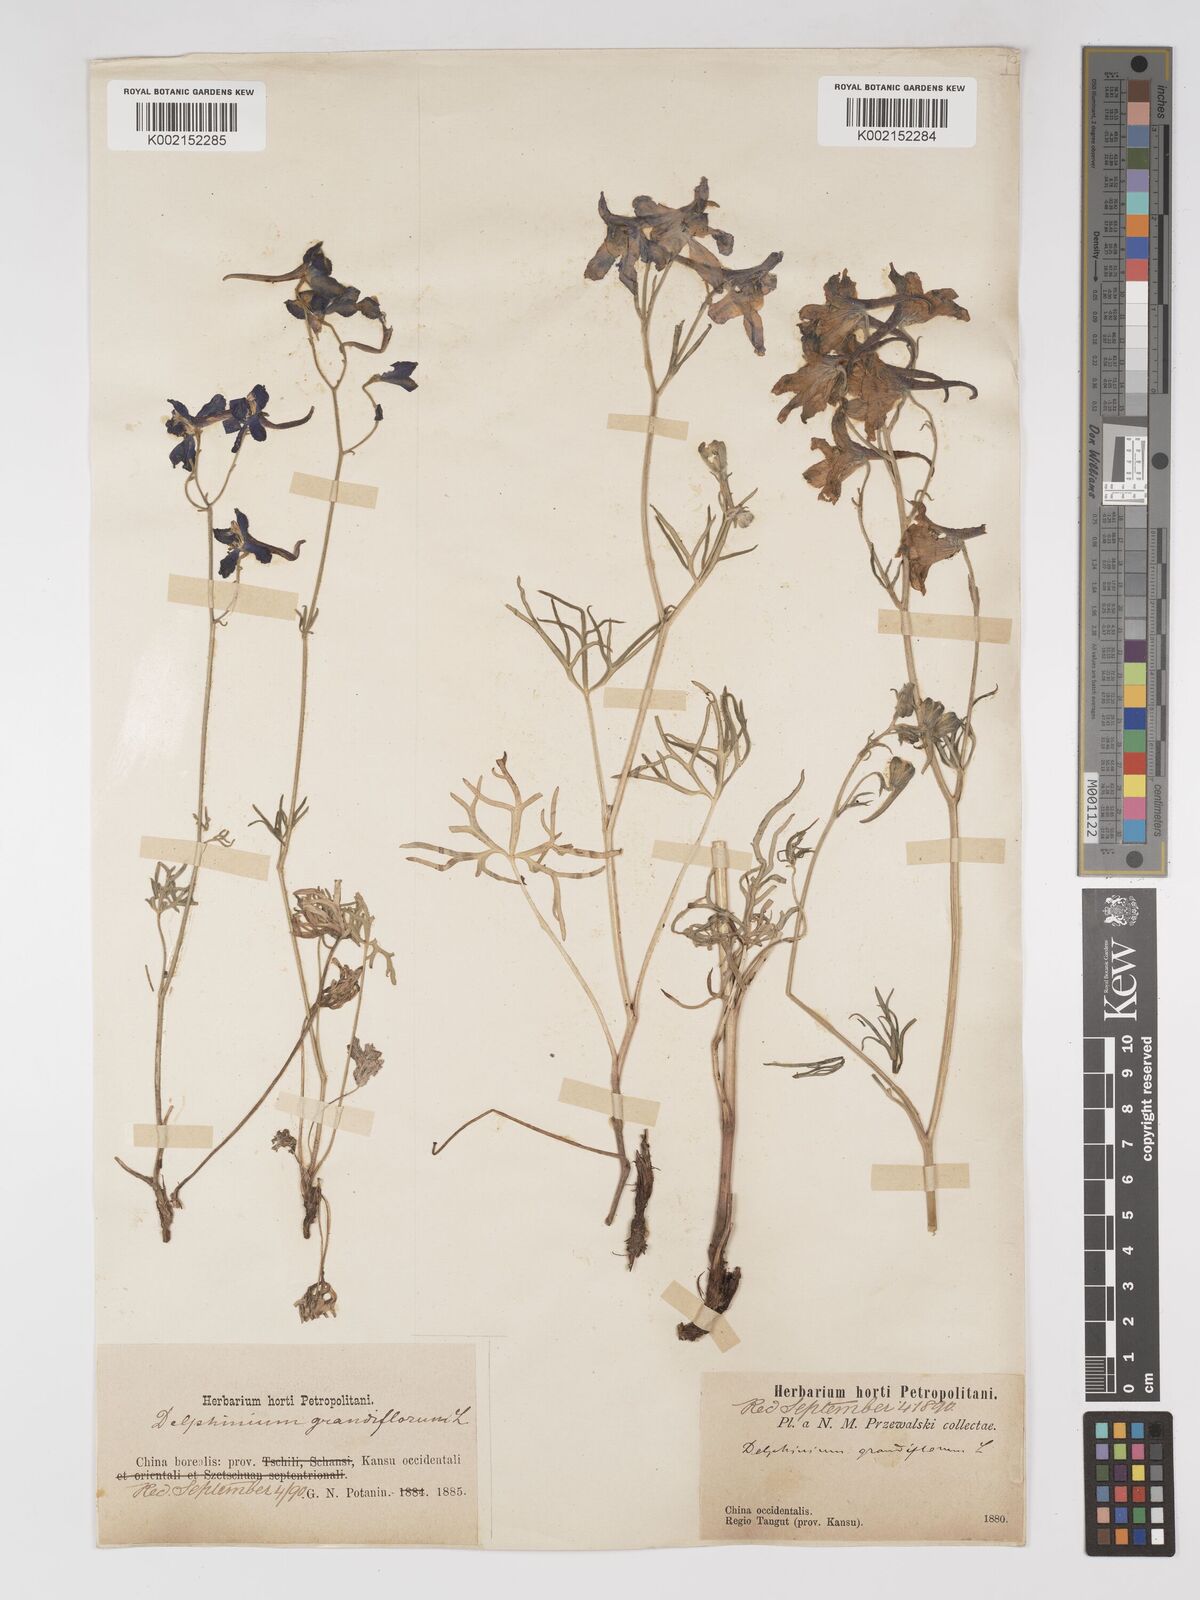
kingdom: Plantae
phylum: Tracheophyta
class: Magnoliopsida
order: Ranunculales
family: Ranunculaceae
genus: Delphinium
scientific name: Delphinium grandiflorum
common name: Siberian larkspur
